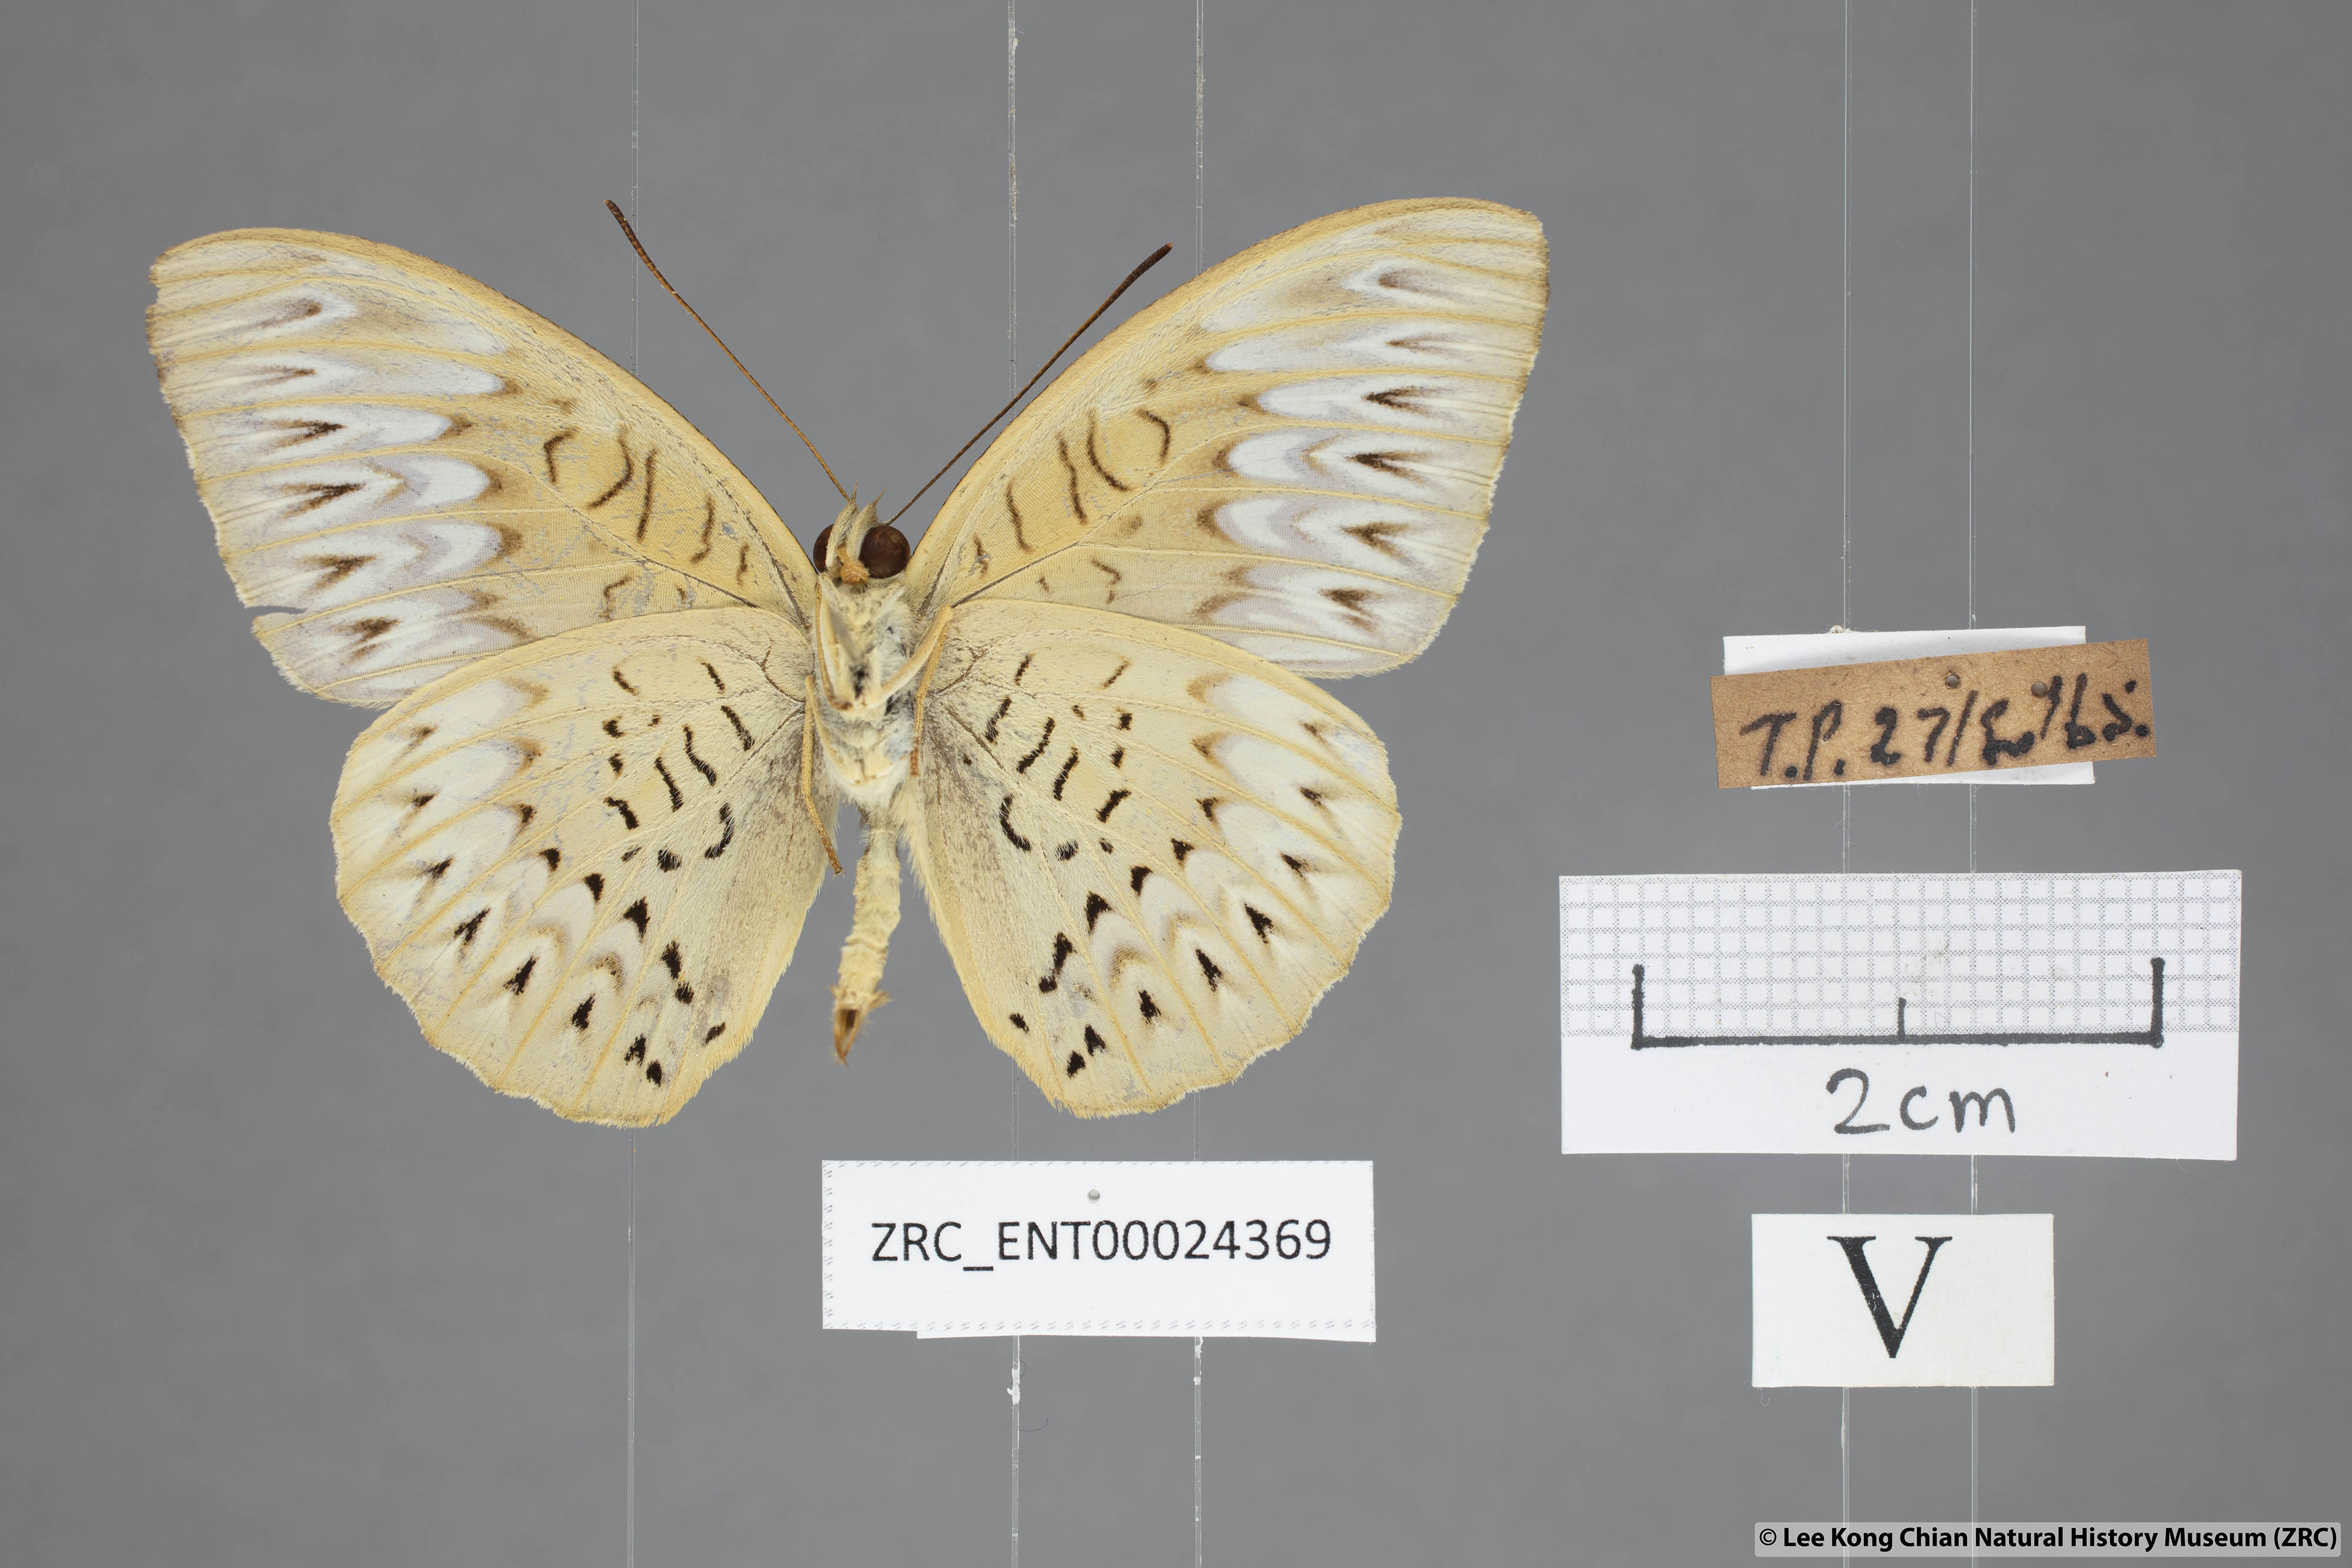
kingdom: Animalia
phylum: Arthropoda
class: Insecta
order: Lepidoptera
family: Nymphalidae
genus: Tanaecia
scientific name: Tanaecia aruna
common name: Short-banded viscount
